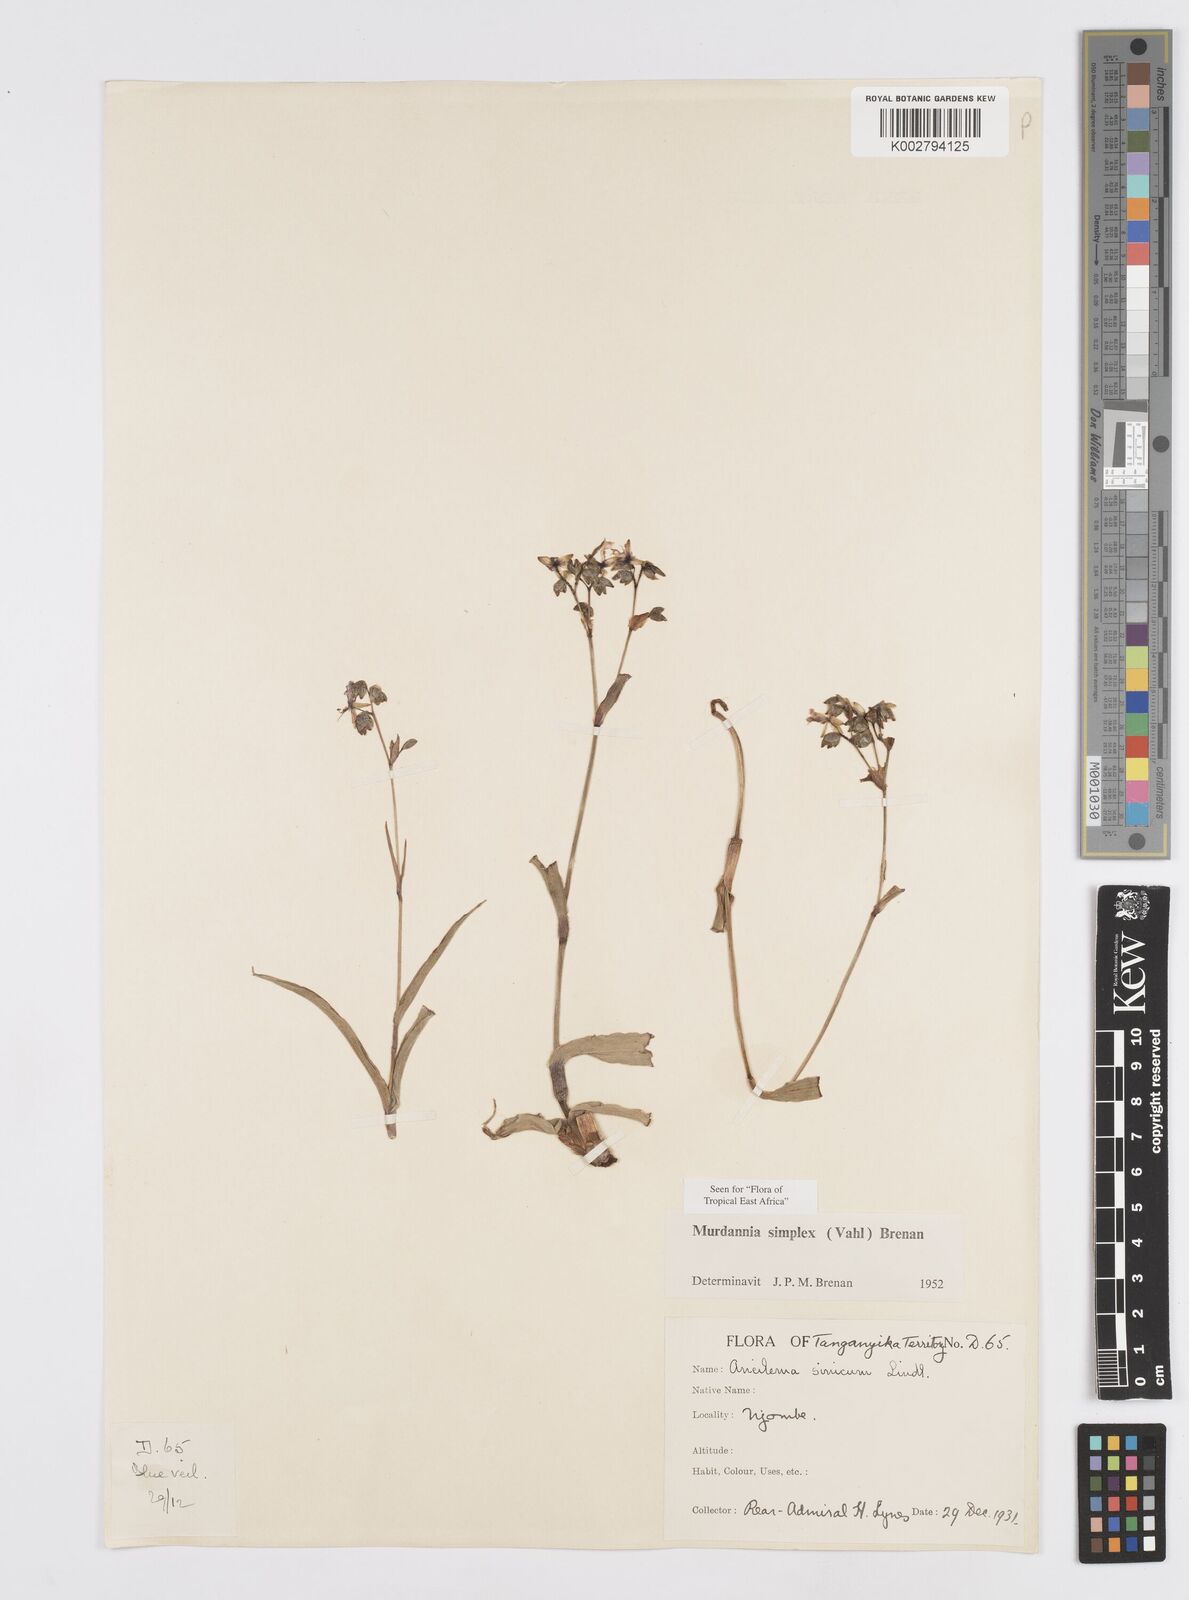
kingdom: Plantae
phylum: Tracheophyta
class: Liliopsida
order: Commelinales
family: Commelinaceae
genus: Murdannia
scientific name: Murdannia simplex
